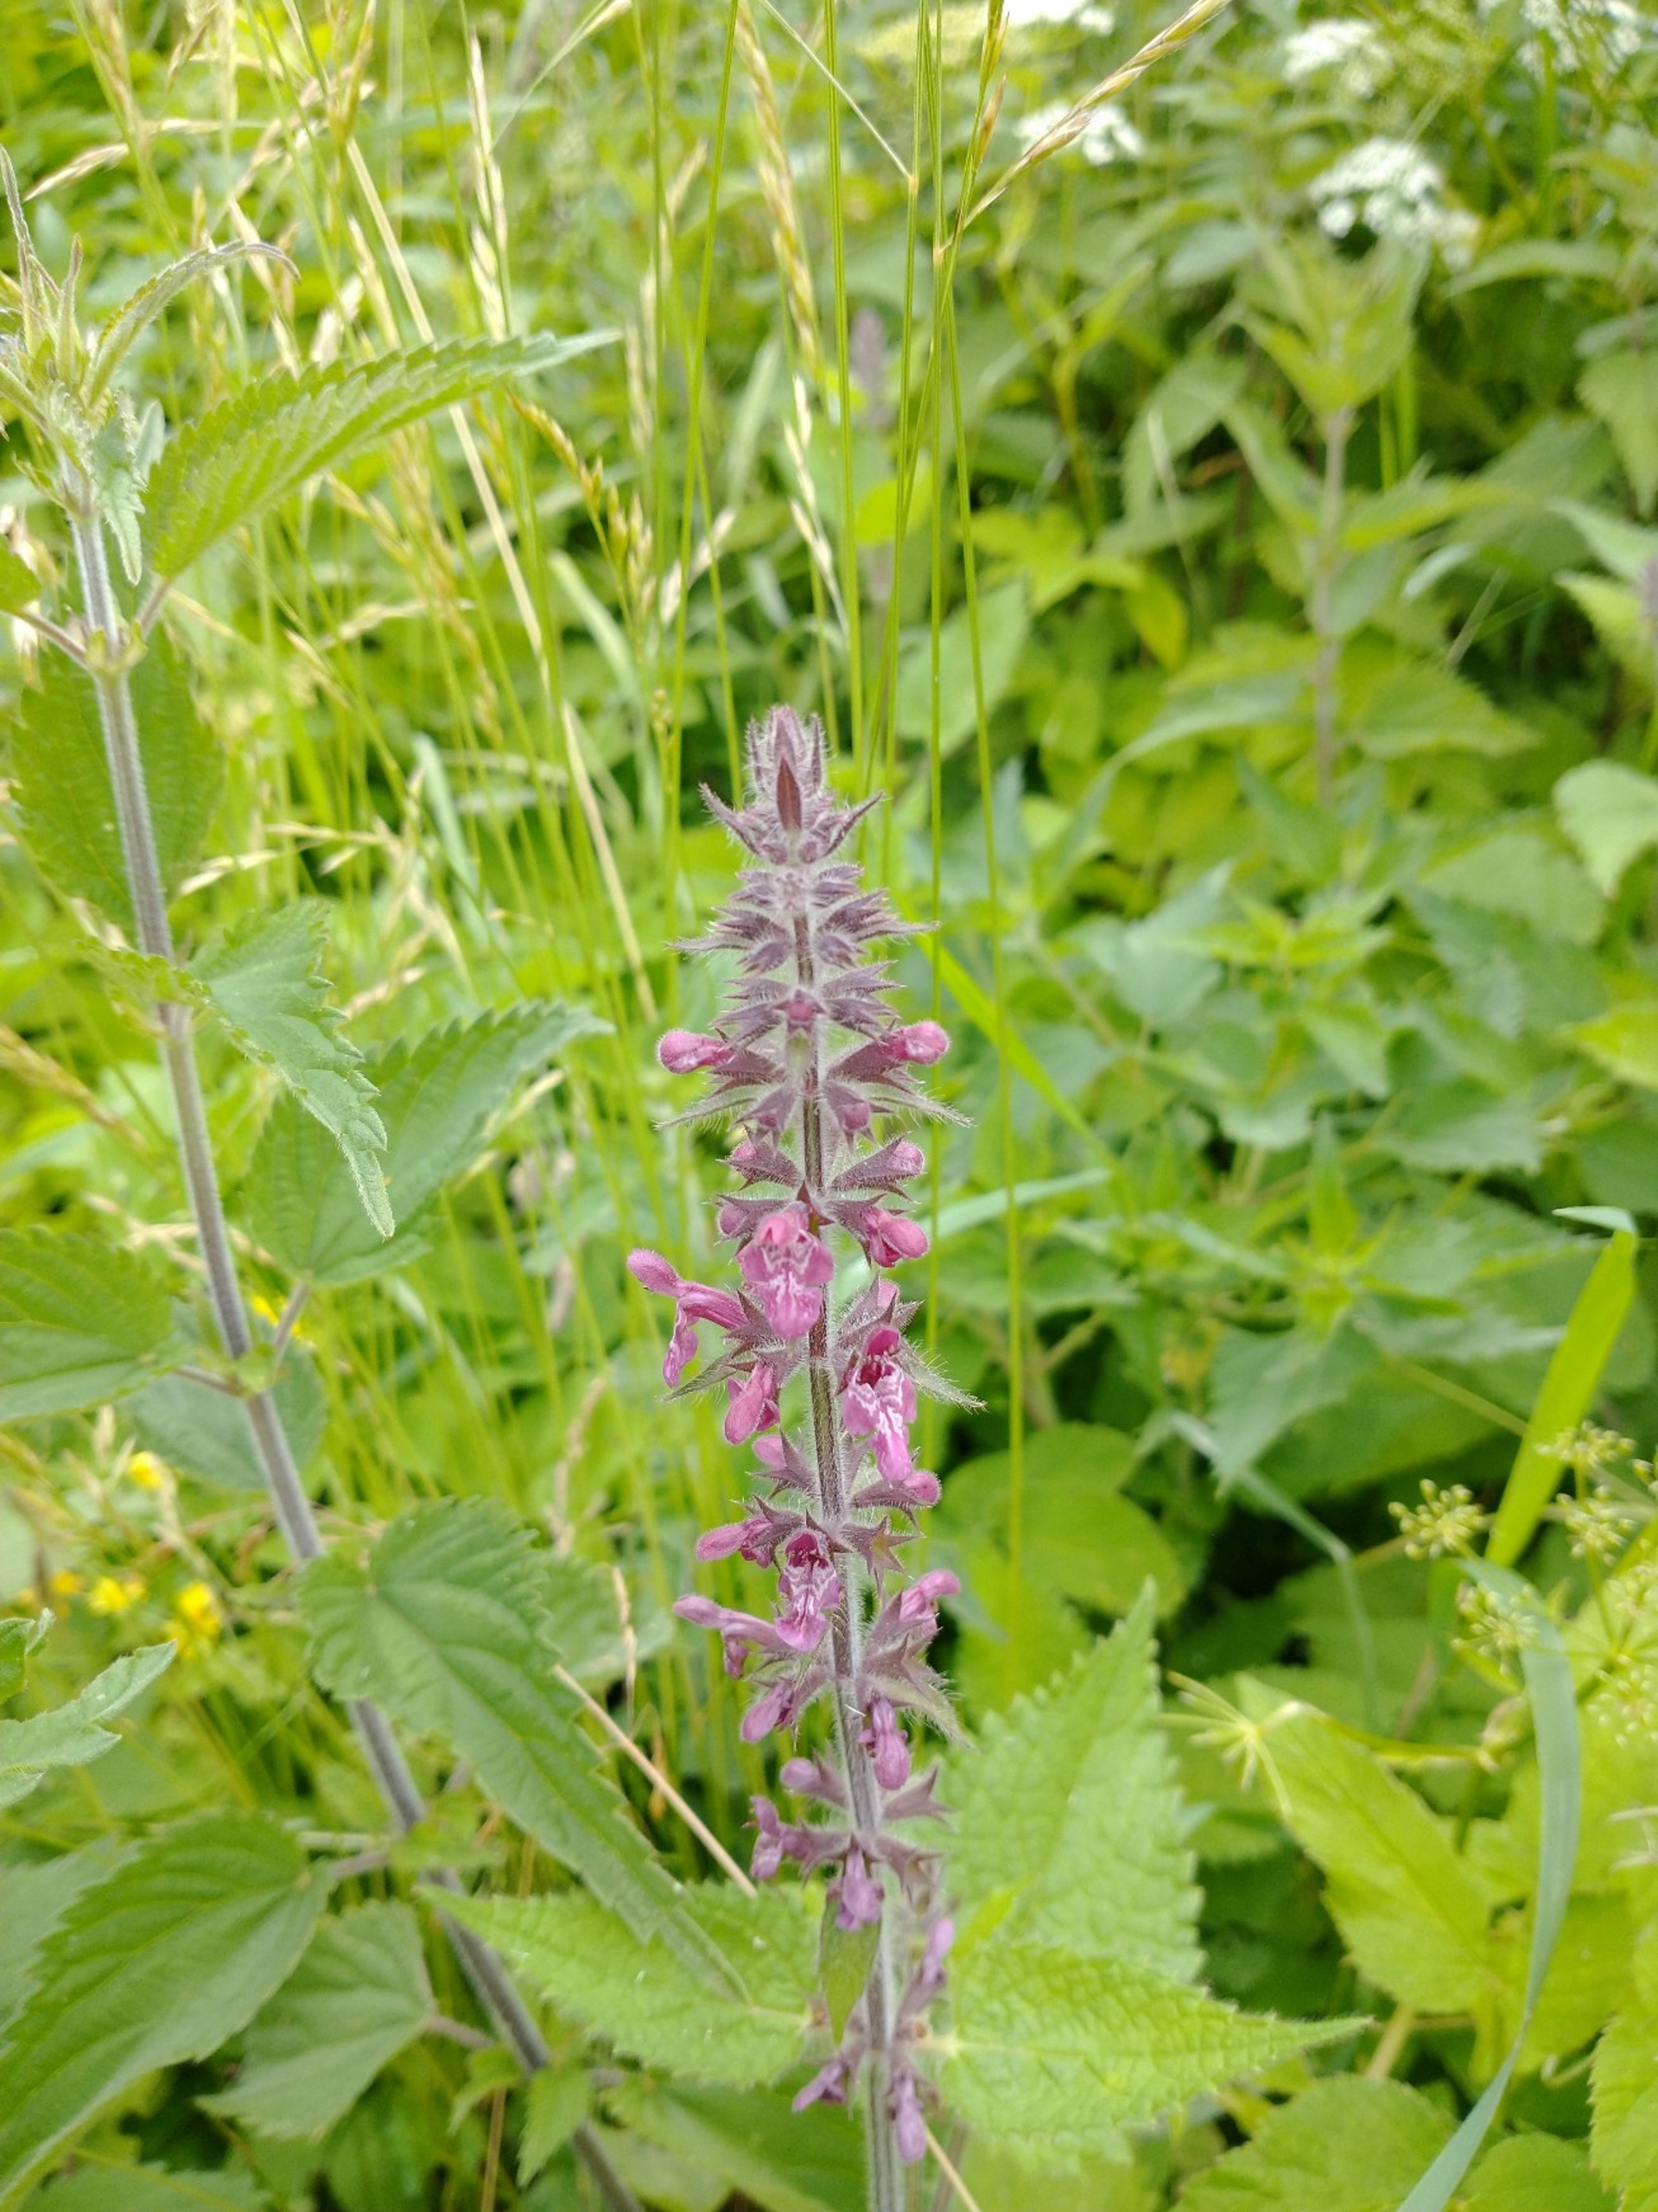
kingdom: Plantae
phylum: Tracheophyta
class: Magnoliopsida
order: Lamiales
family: Lamiaceae
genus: Stachys
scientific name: Stachys sylvatica
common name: Skov-galtetand
